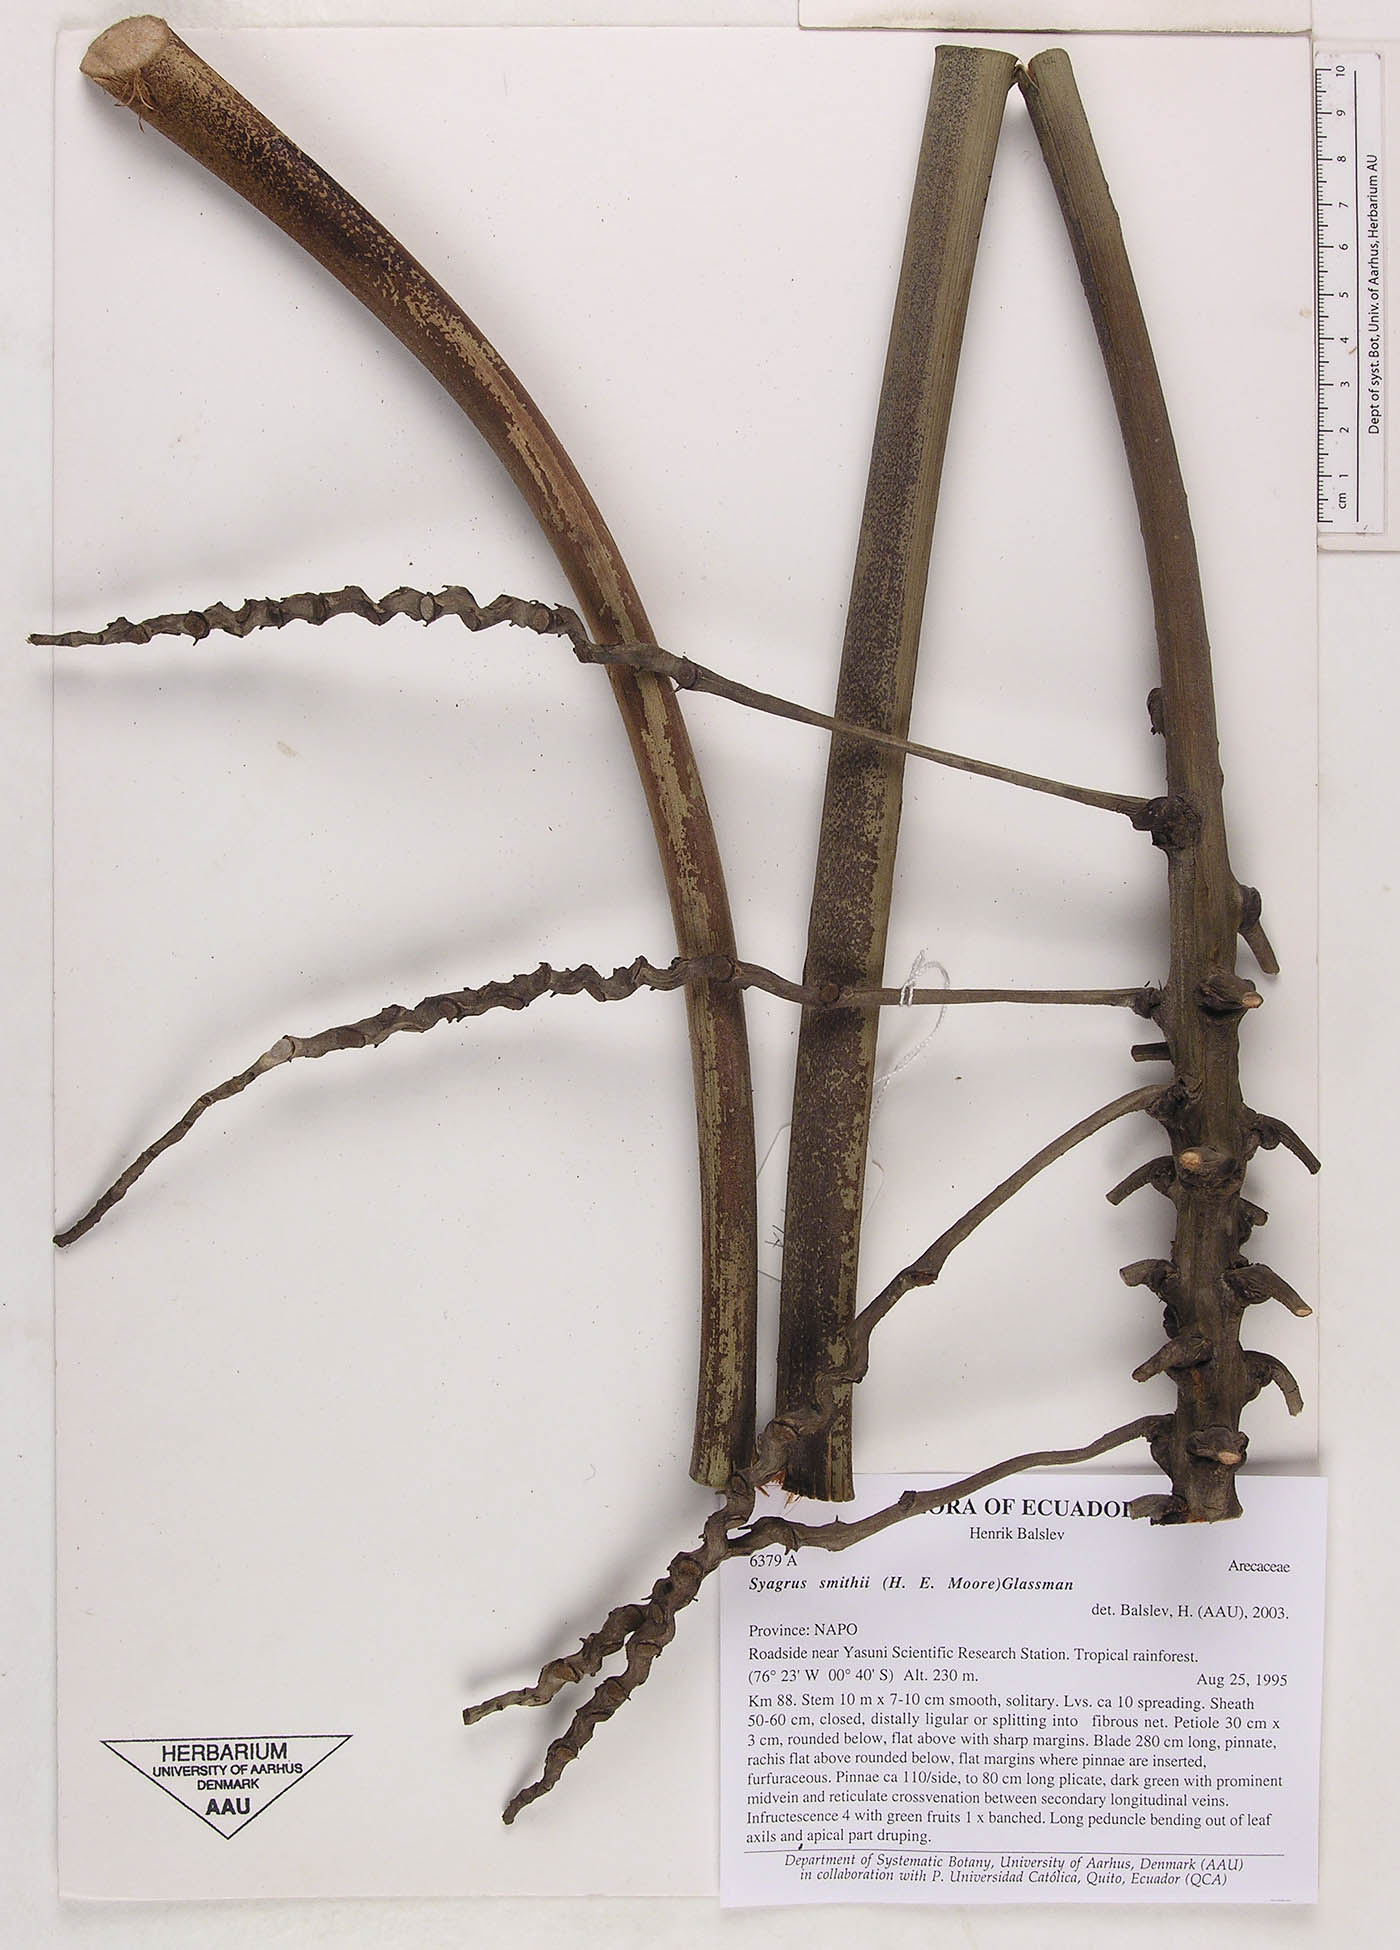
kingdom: Plantae
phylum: Tracheophyta
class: Liliopsida
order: Arecales
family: Arecaceae
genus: Syagrus
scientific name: Syagrus smithii
